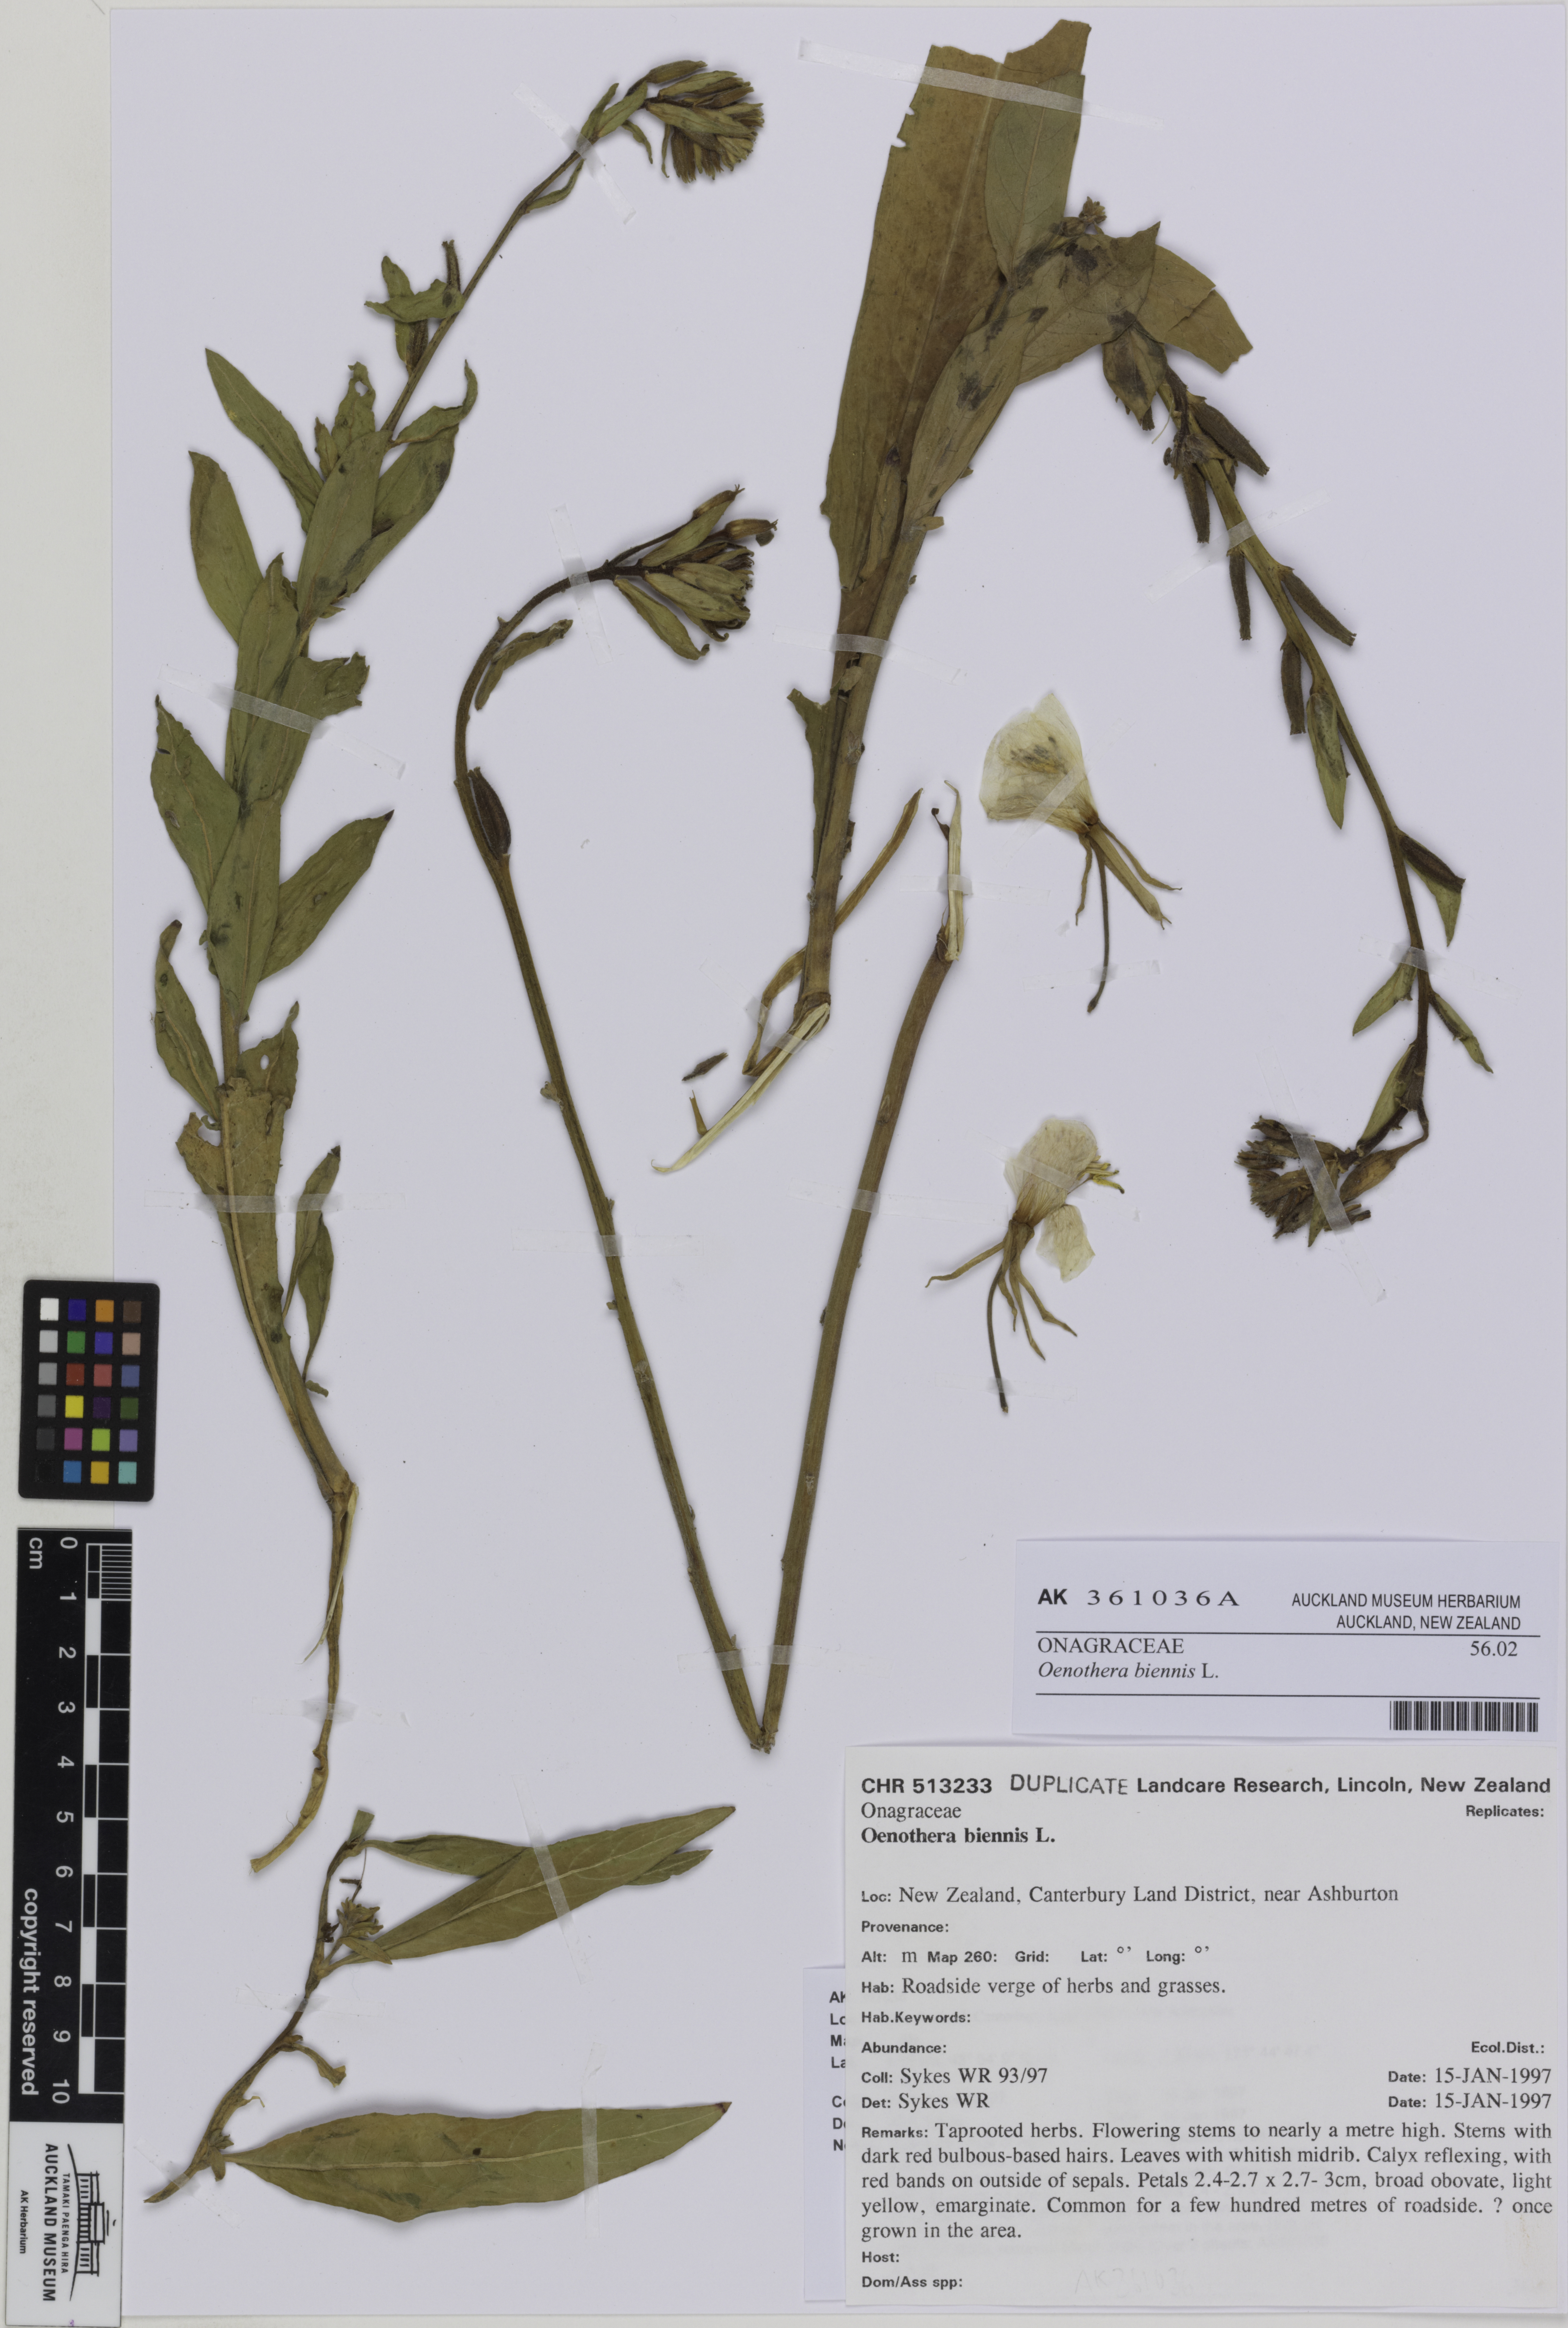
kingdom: Plantae
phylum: Tracheophyta
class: Magnoliopsida
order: Myrtales
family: Onagraceae
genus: Oenothera
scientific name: Oenothera biennis
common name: Common evening-primrose
